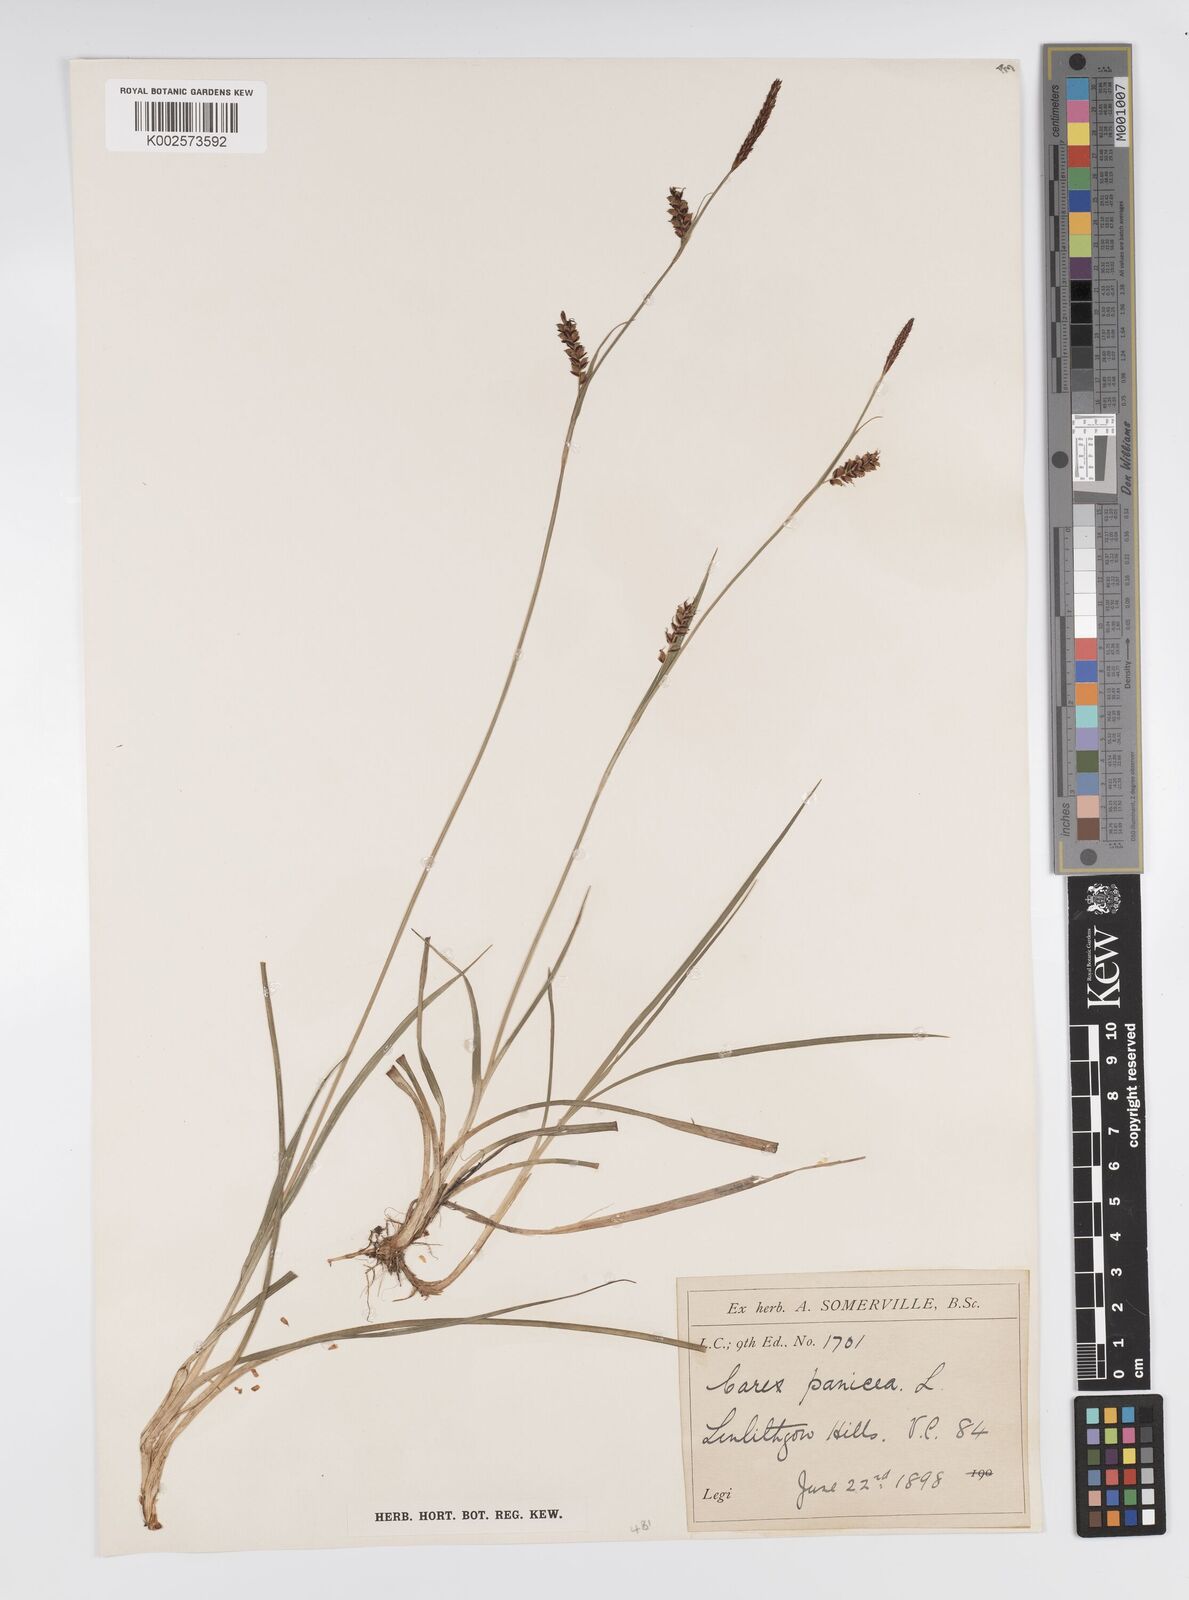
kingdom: Plantae
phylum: Tracheophyta
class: Liliopsida
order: Poales
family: Cyperaceae
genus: Carex
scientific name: Carex panicea
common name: Carnation sedge
